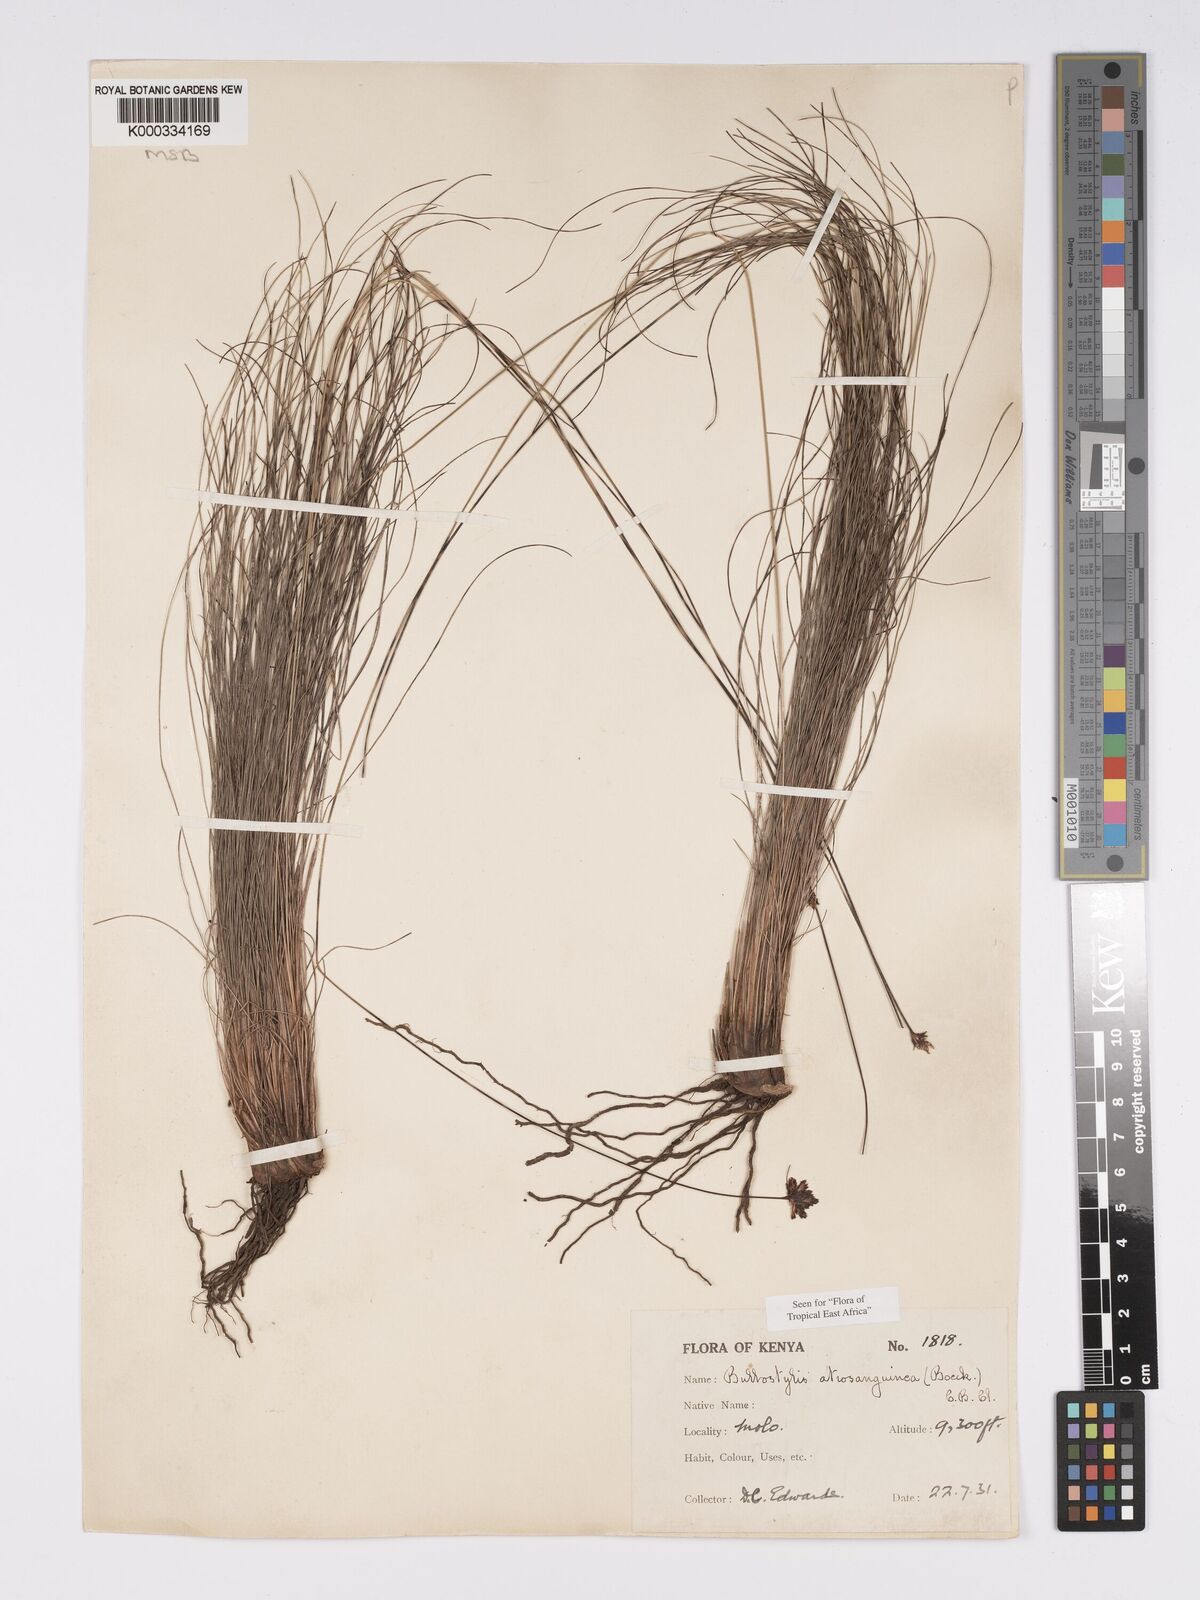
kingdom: Plantae
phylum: Tracheophyta
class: Liliopsida
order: Poales
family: Cyperaceae
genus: Bulbostylis
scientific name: Bulbostylis atrosanguinea
